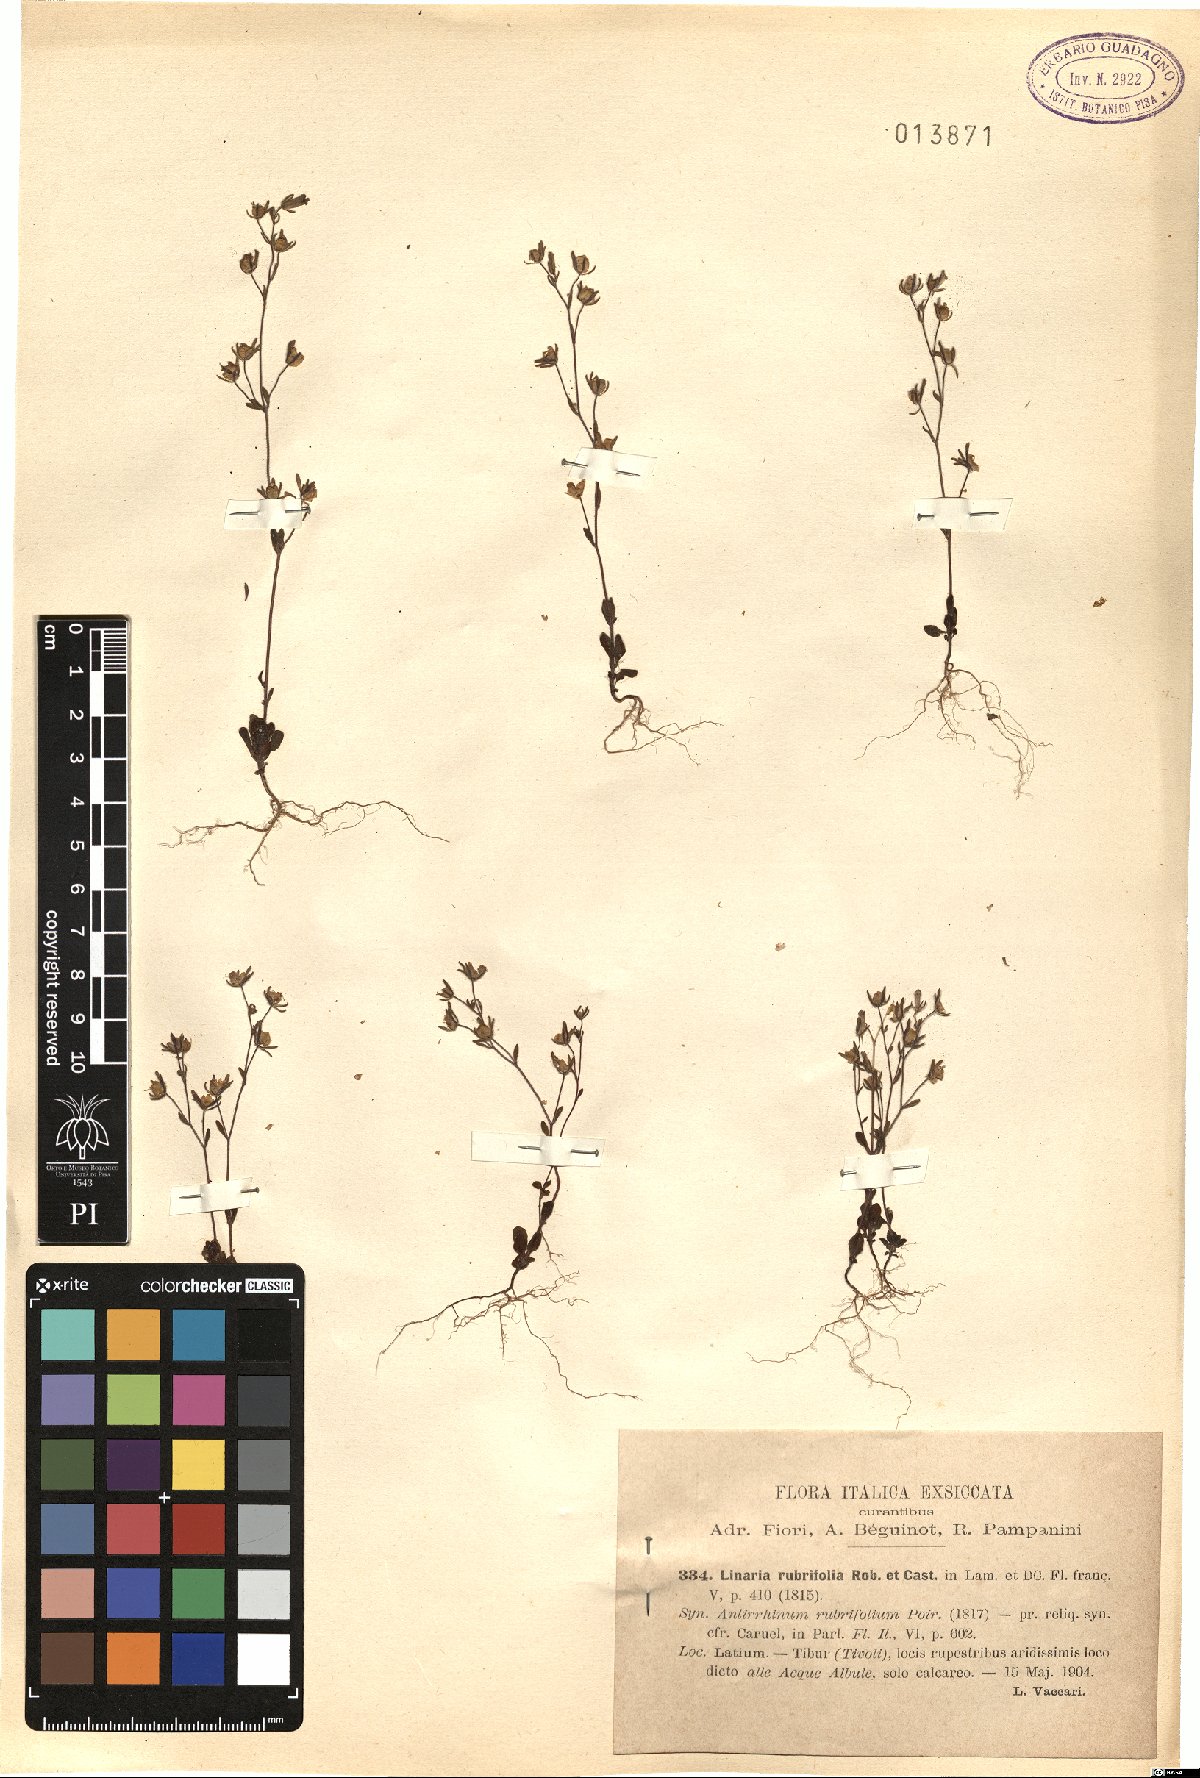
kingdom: Plantae
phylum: Tracheophyta
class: Magnoliopsida
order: Lamiales
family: Plantaginaceae
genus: Chaenorhinum
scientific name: Chaenorhinum rubrifolium
